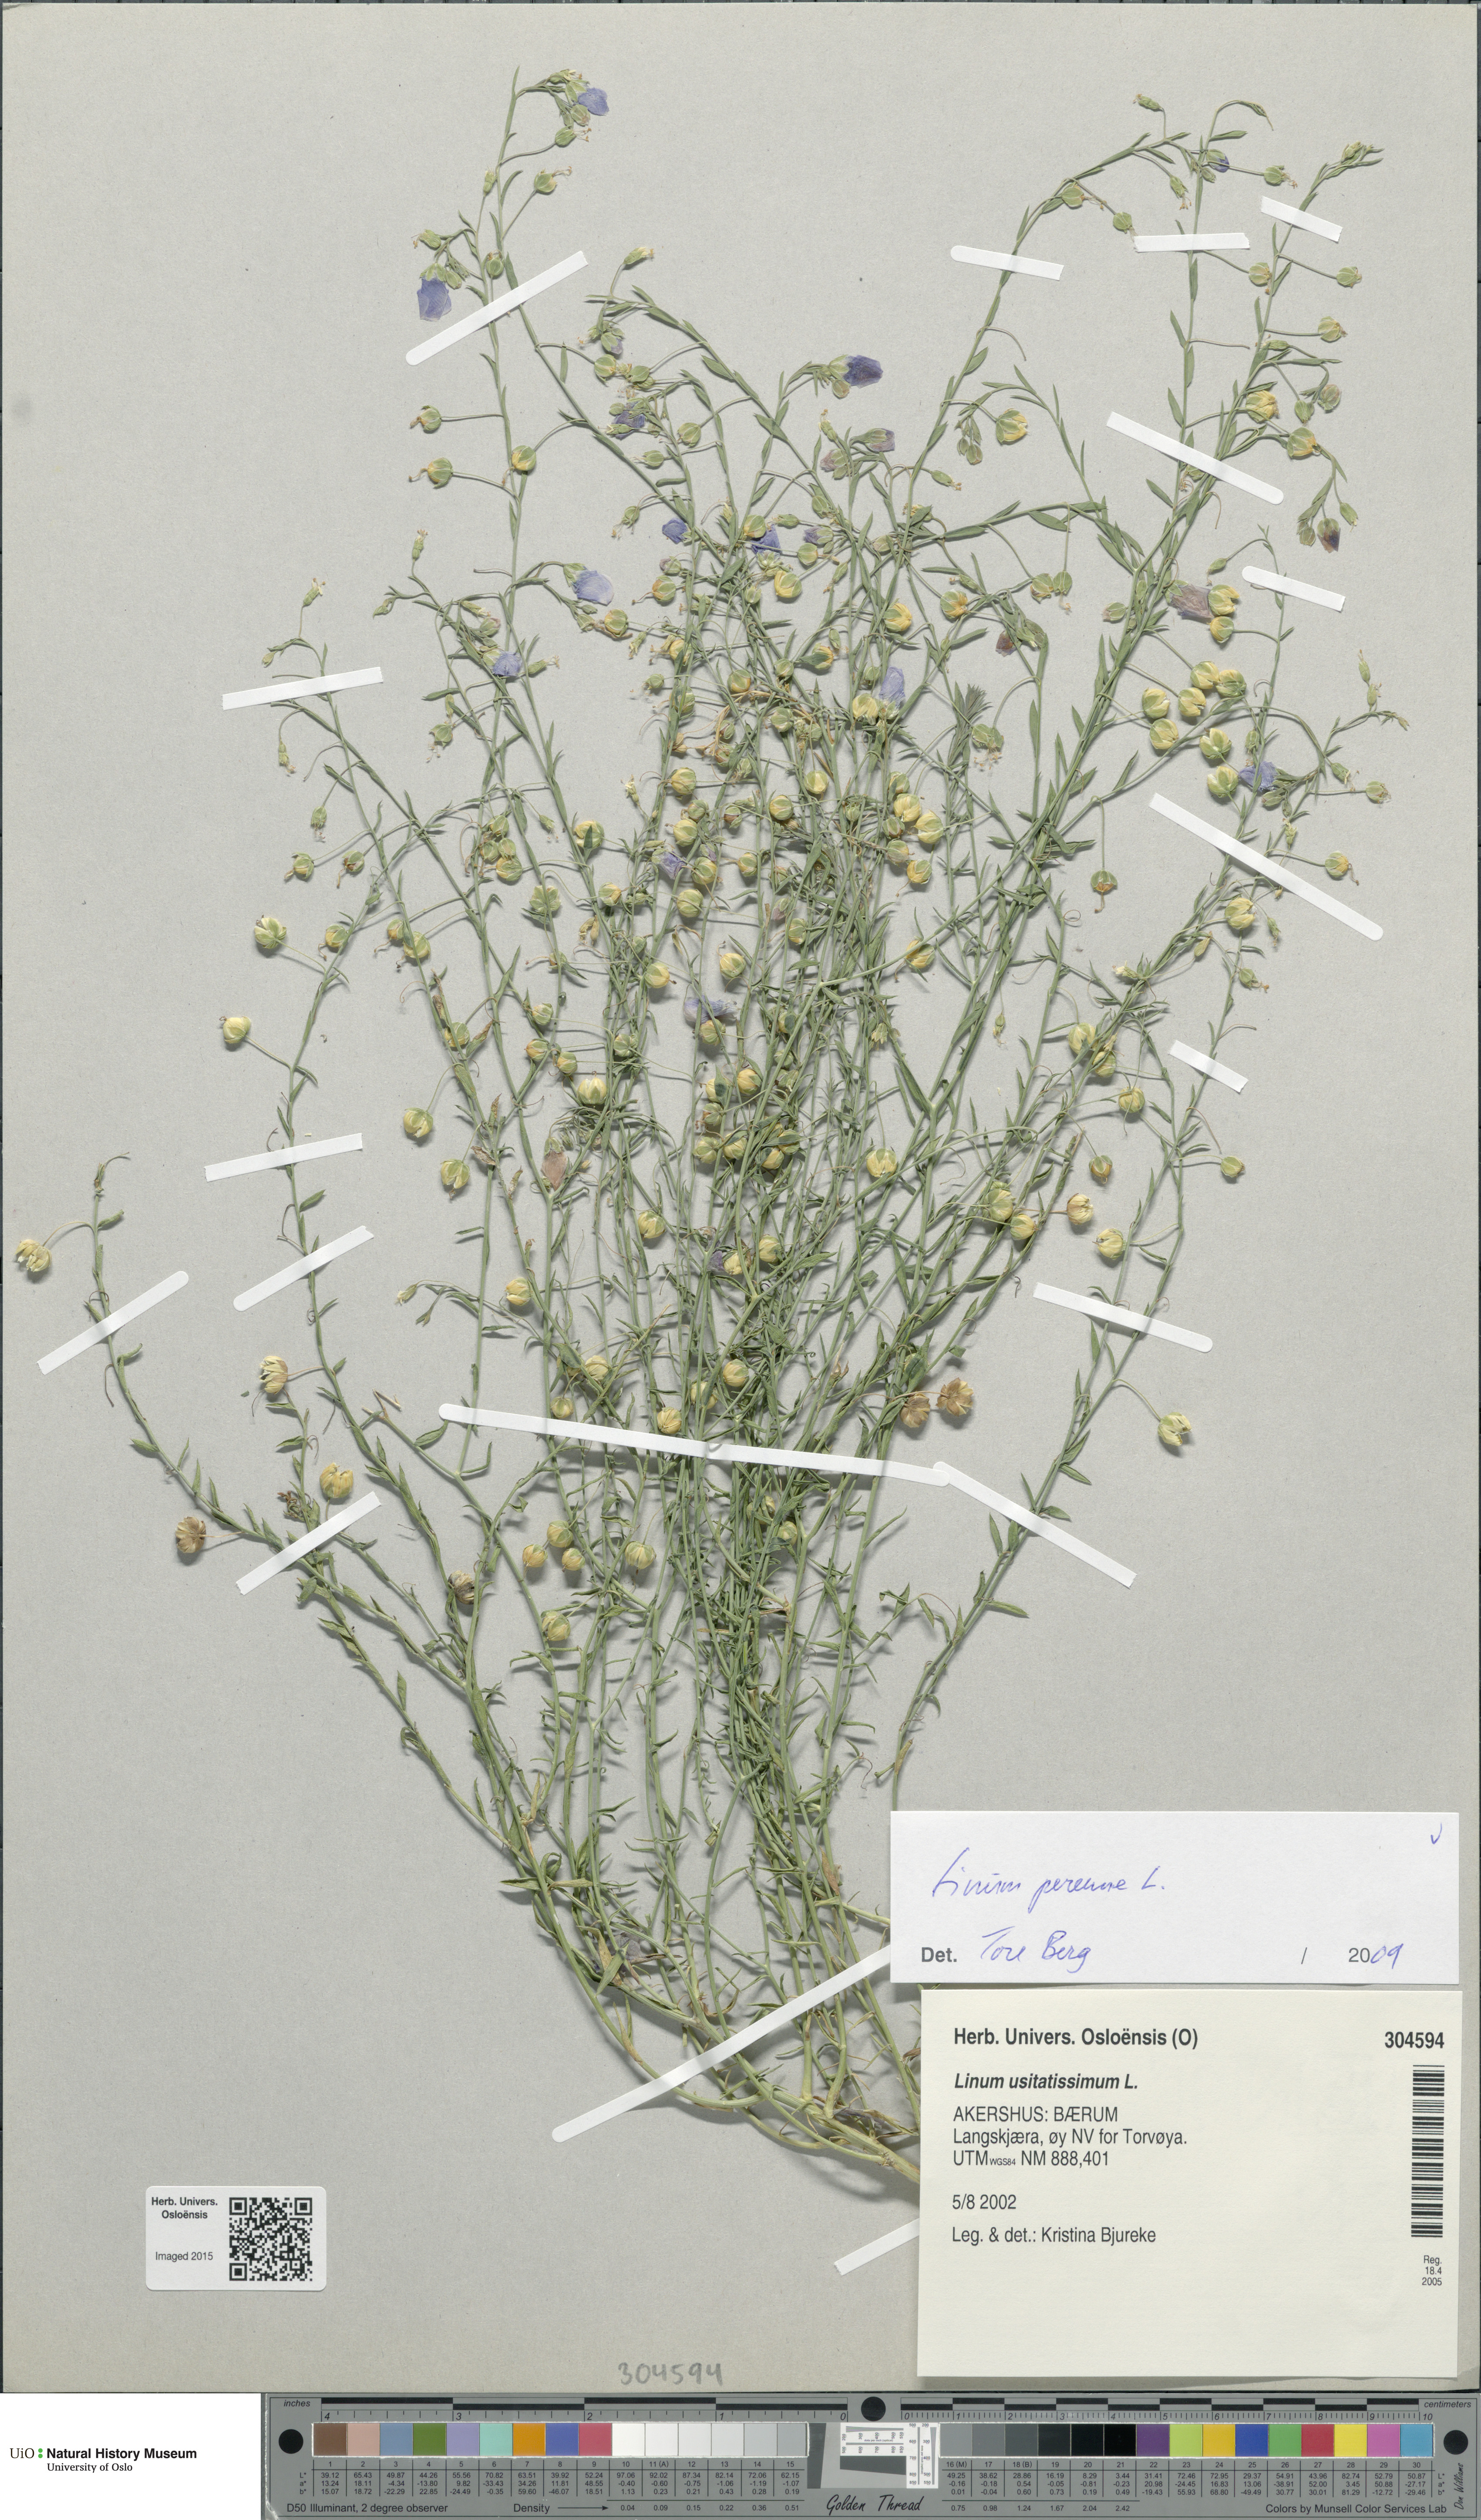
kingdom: Plantae
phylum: Tracheophyta
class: Magnoliopsida
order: Malpighiales
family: Linaceae
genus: Linum
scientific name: Linum perenne
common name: Blue flax
